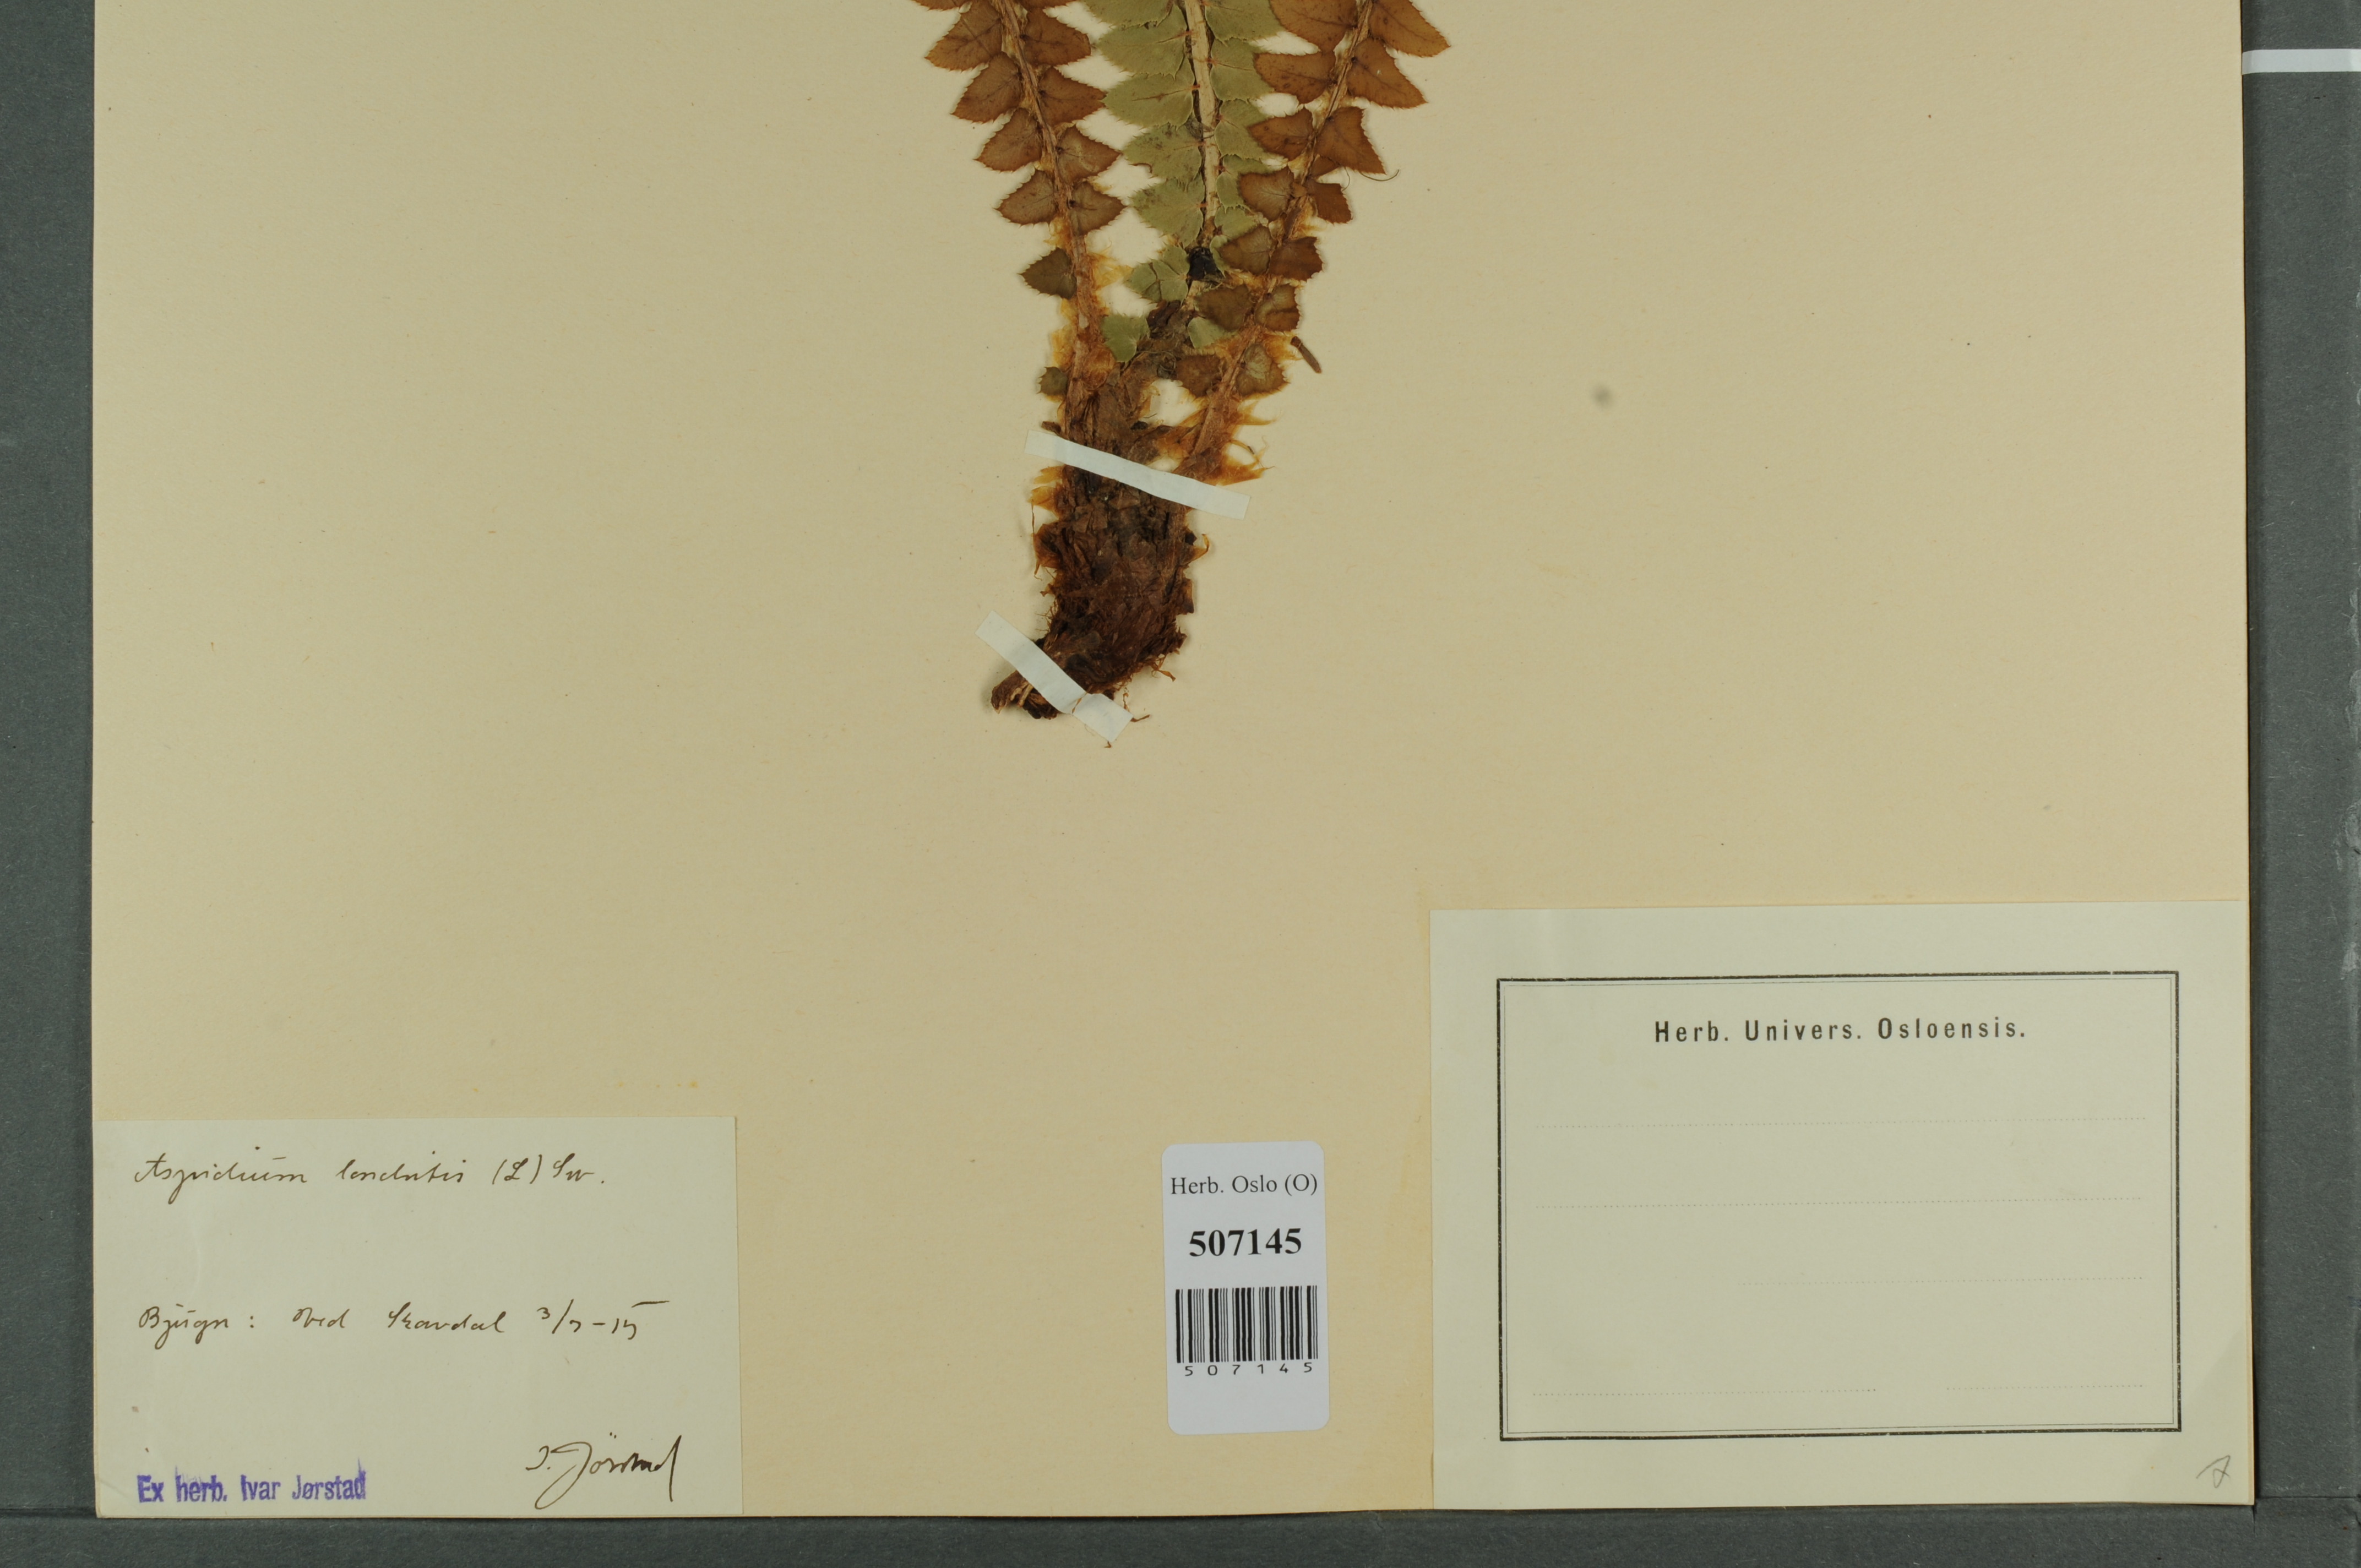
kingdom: Plantae
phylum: Tracheophyta
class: Polypodiopsida
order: Polypodiales
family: Dryopteridaceae
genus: Polystichum
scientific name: Polystichum lonchitis
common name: Holly fern
